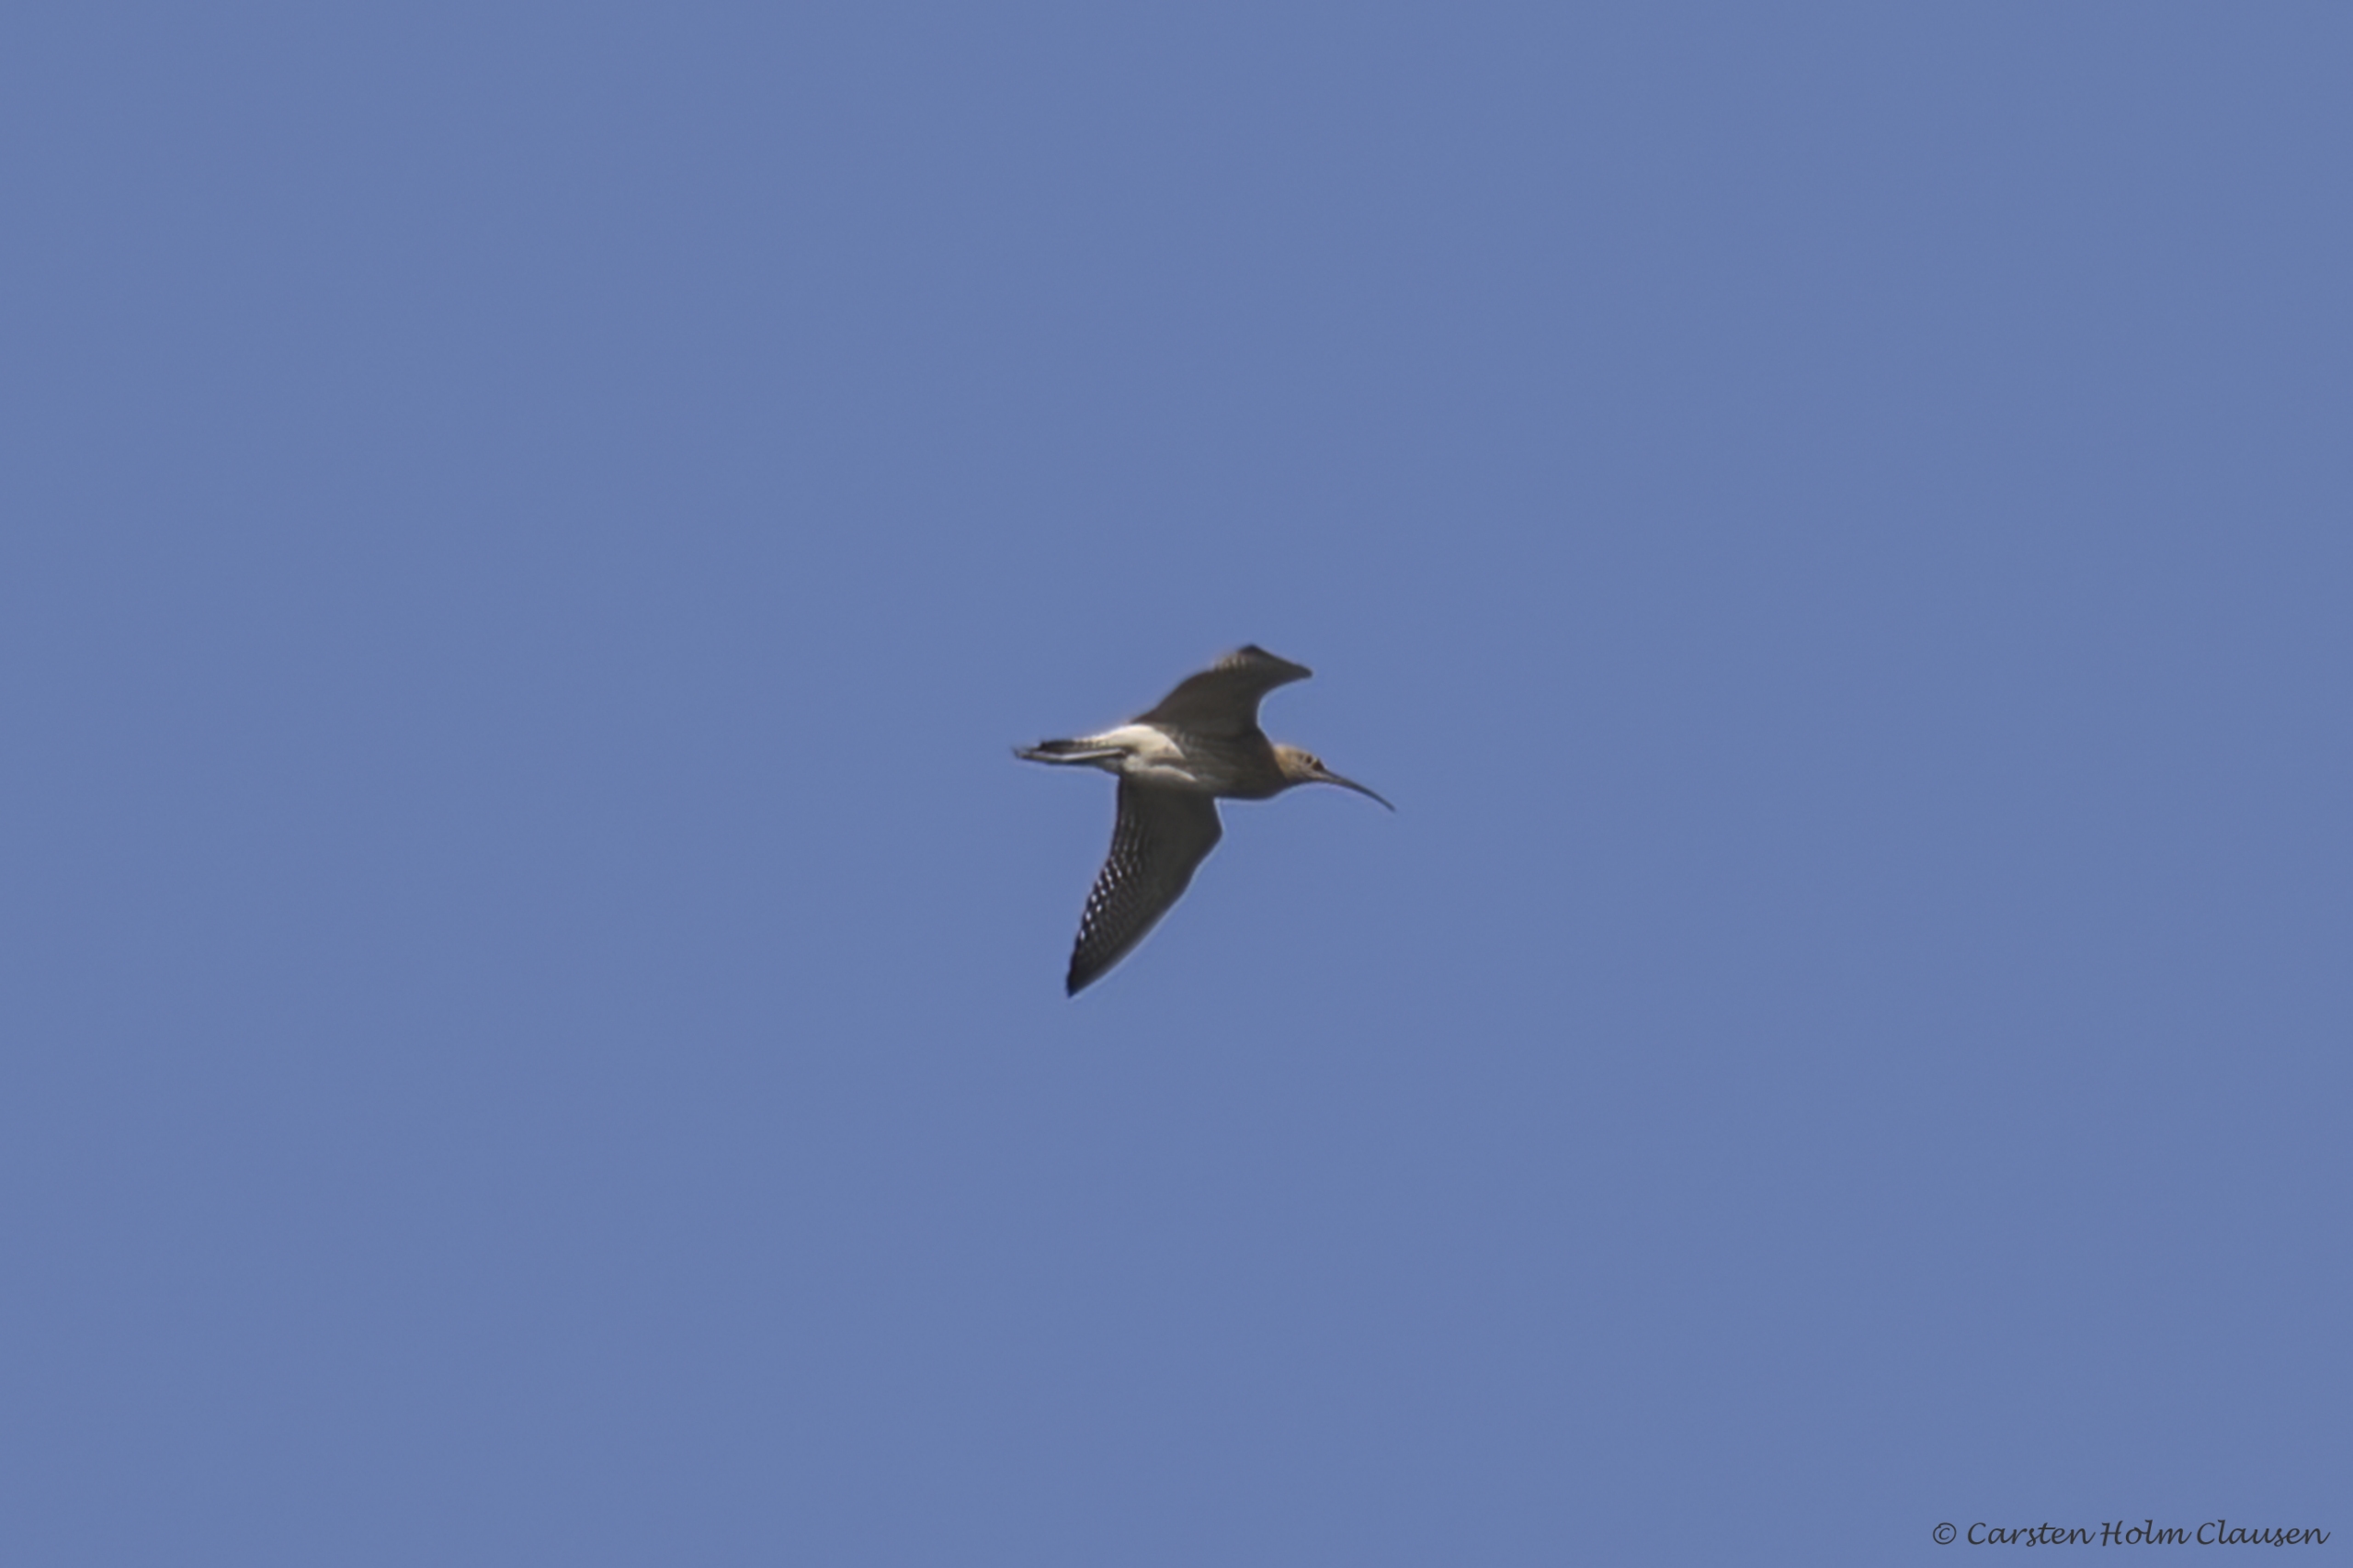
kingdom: Animalia
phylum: Chordata
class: Aves
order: Charadriiformes
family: Scolopacidae
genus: Numenius
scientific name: Numenius arquata
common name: Storspove
